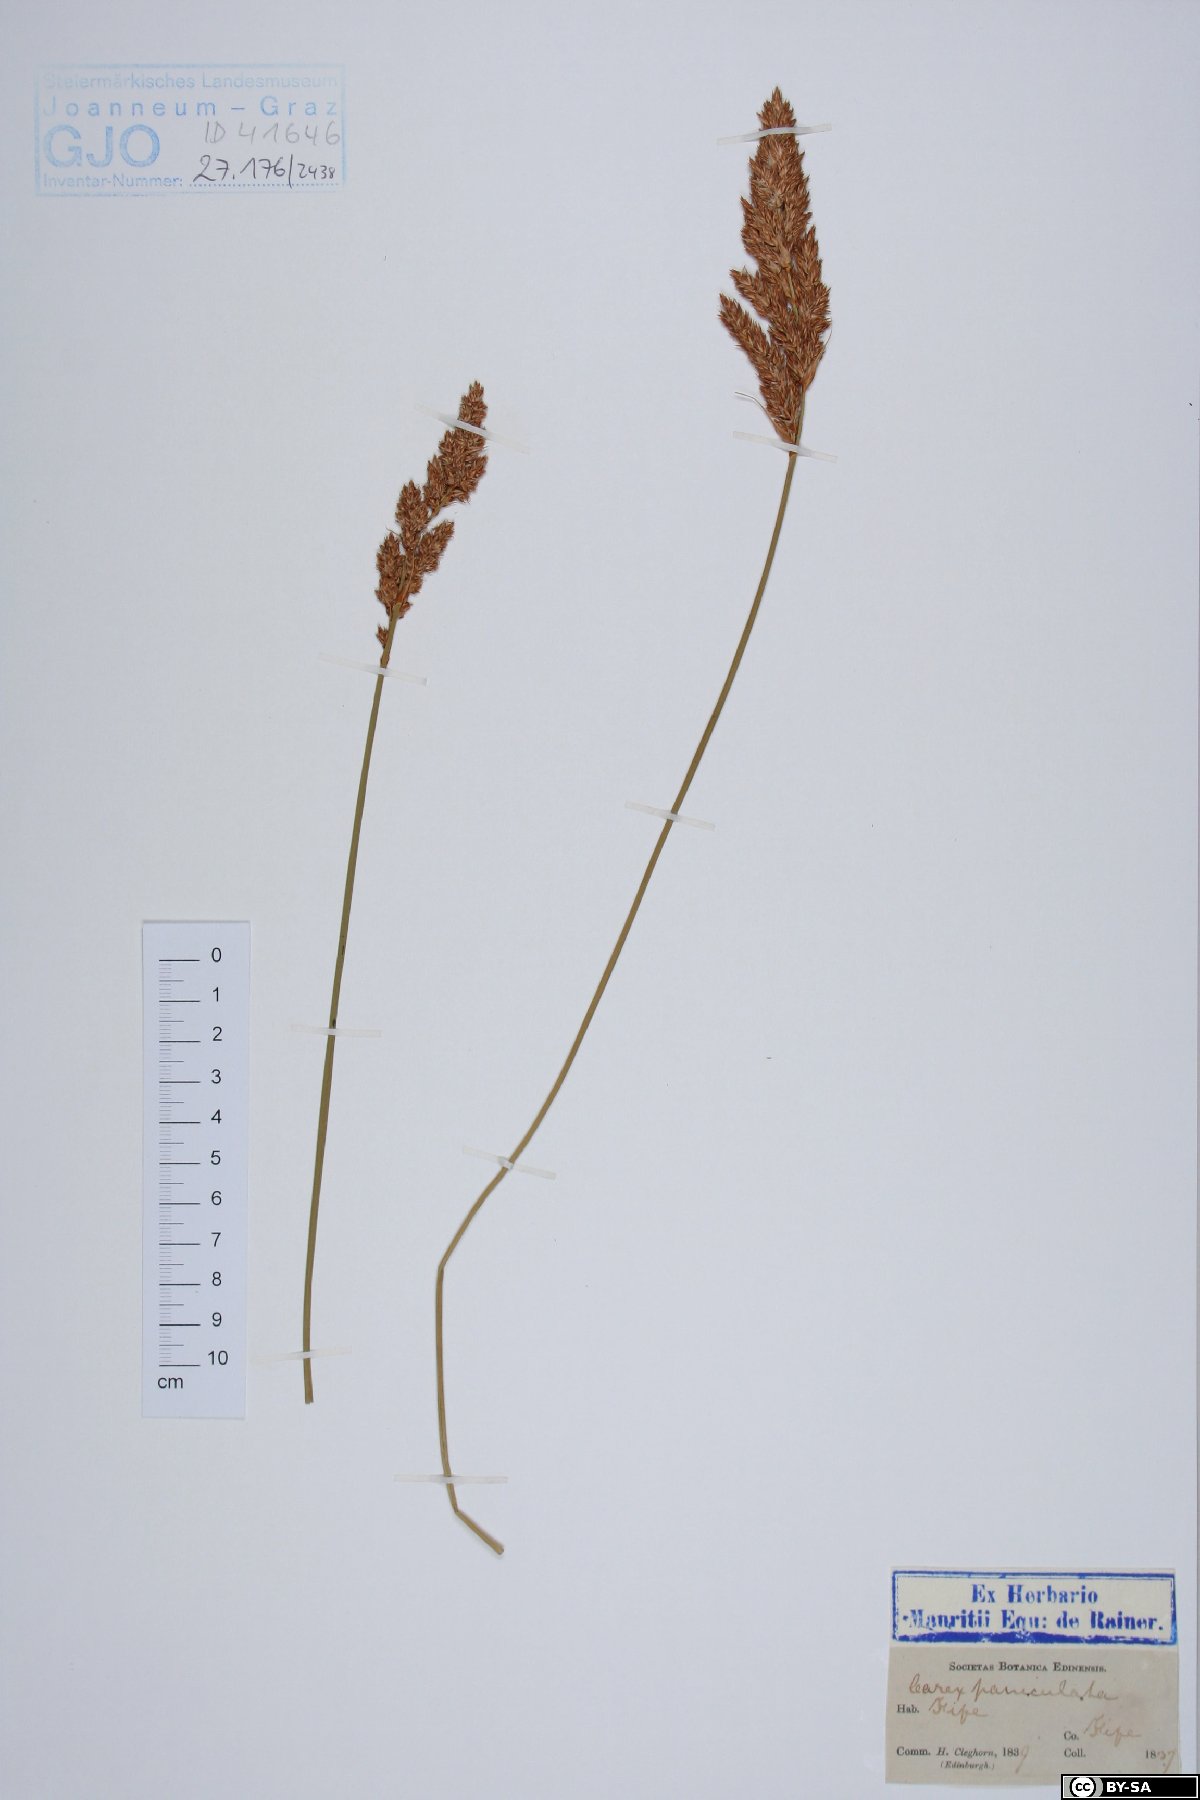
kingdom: Plantae
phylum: Tracheophyta
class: Liliopsida
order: Poales
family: Cyperaceae
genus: Carex
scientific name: Carex paniculata
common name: Greater tussock-sedge
